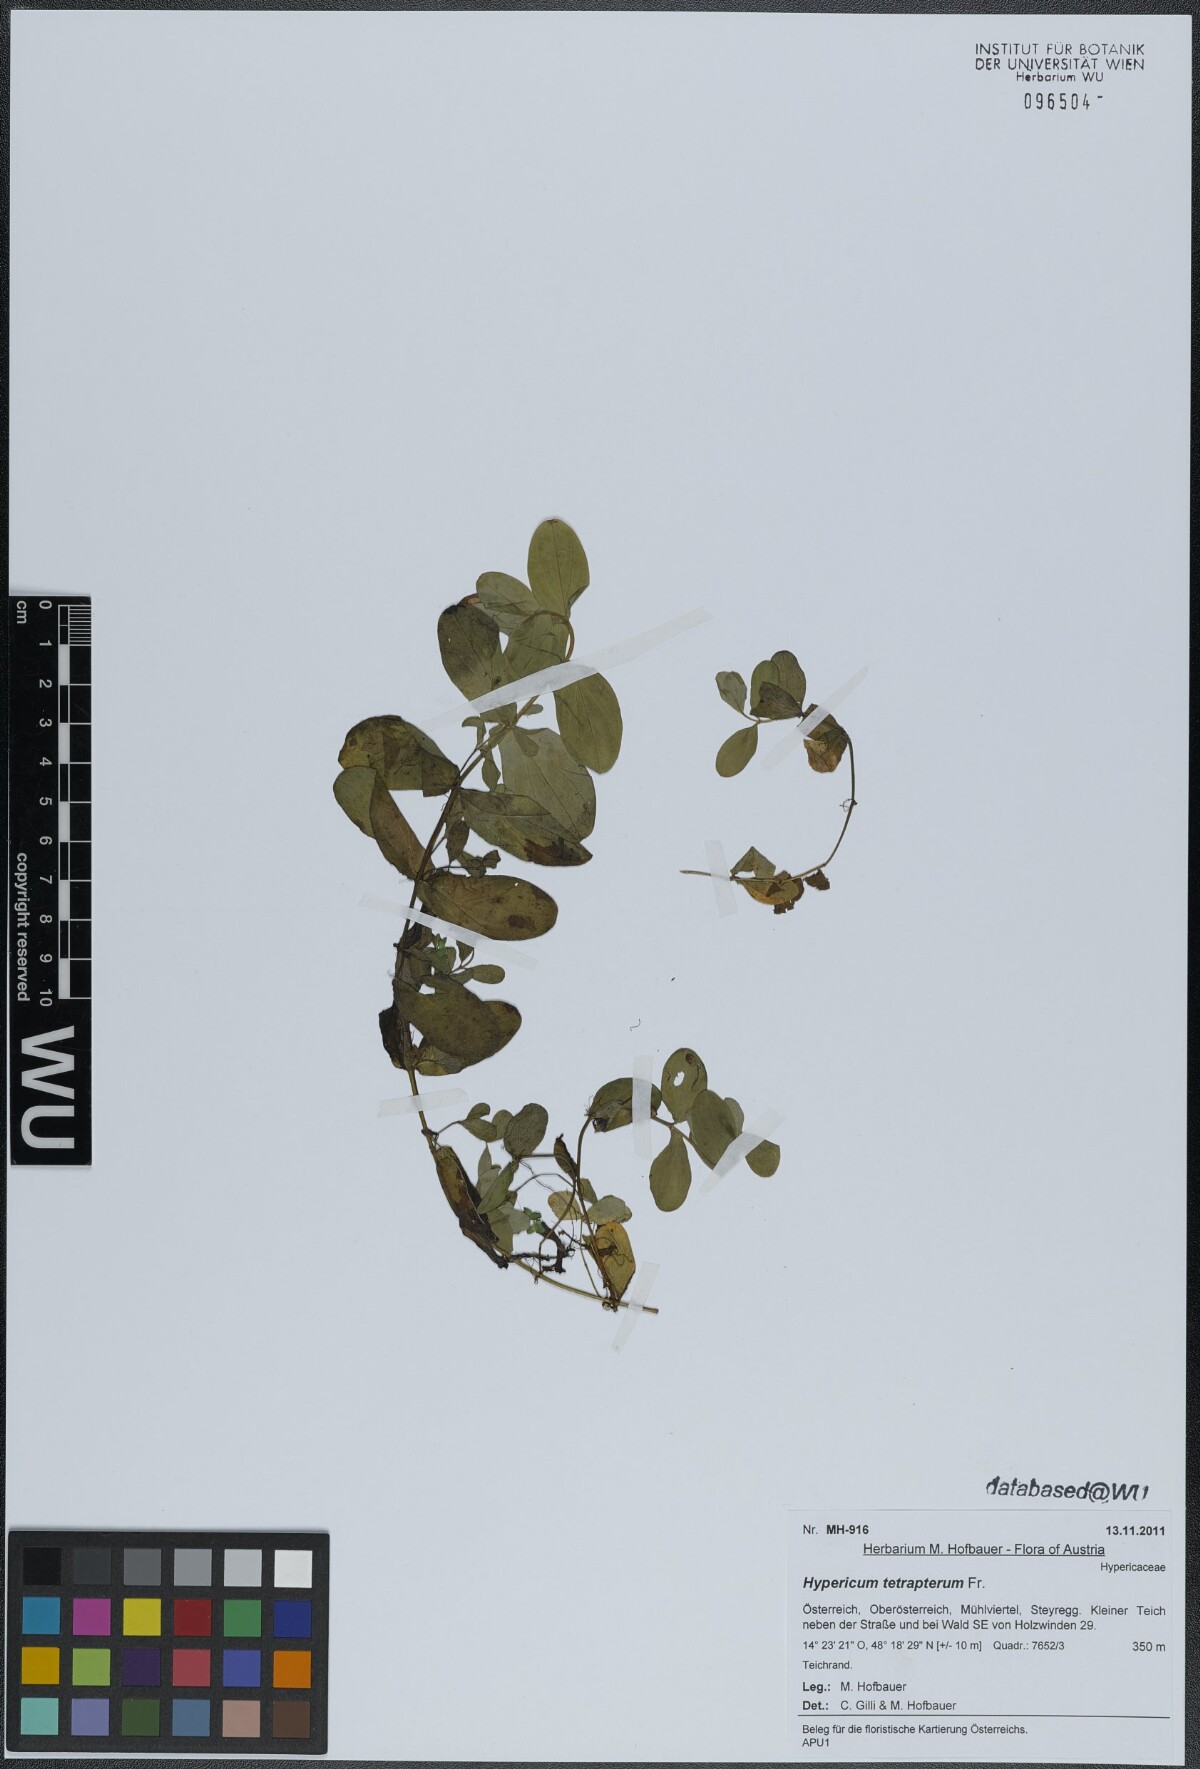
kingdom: Plantae
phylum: Tracheophyta
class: Magnoliopsida
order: Malpighiales
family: Hypericaceae
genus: Hypericum
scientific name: Hypericum tetrapterum
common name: Square-stalked st. john's-wort
